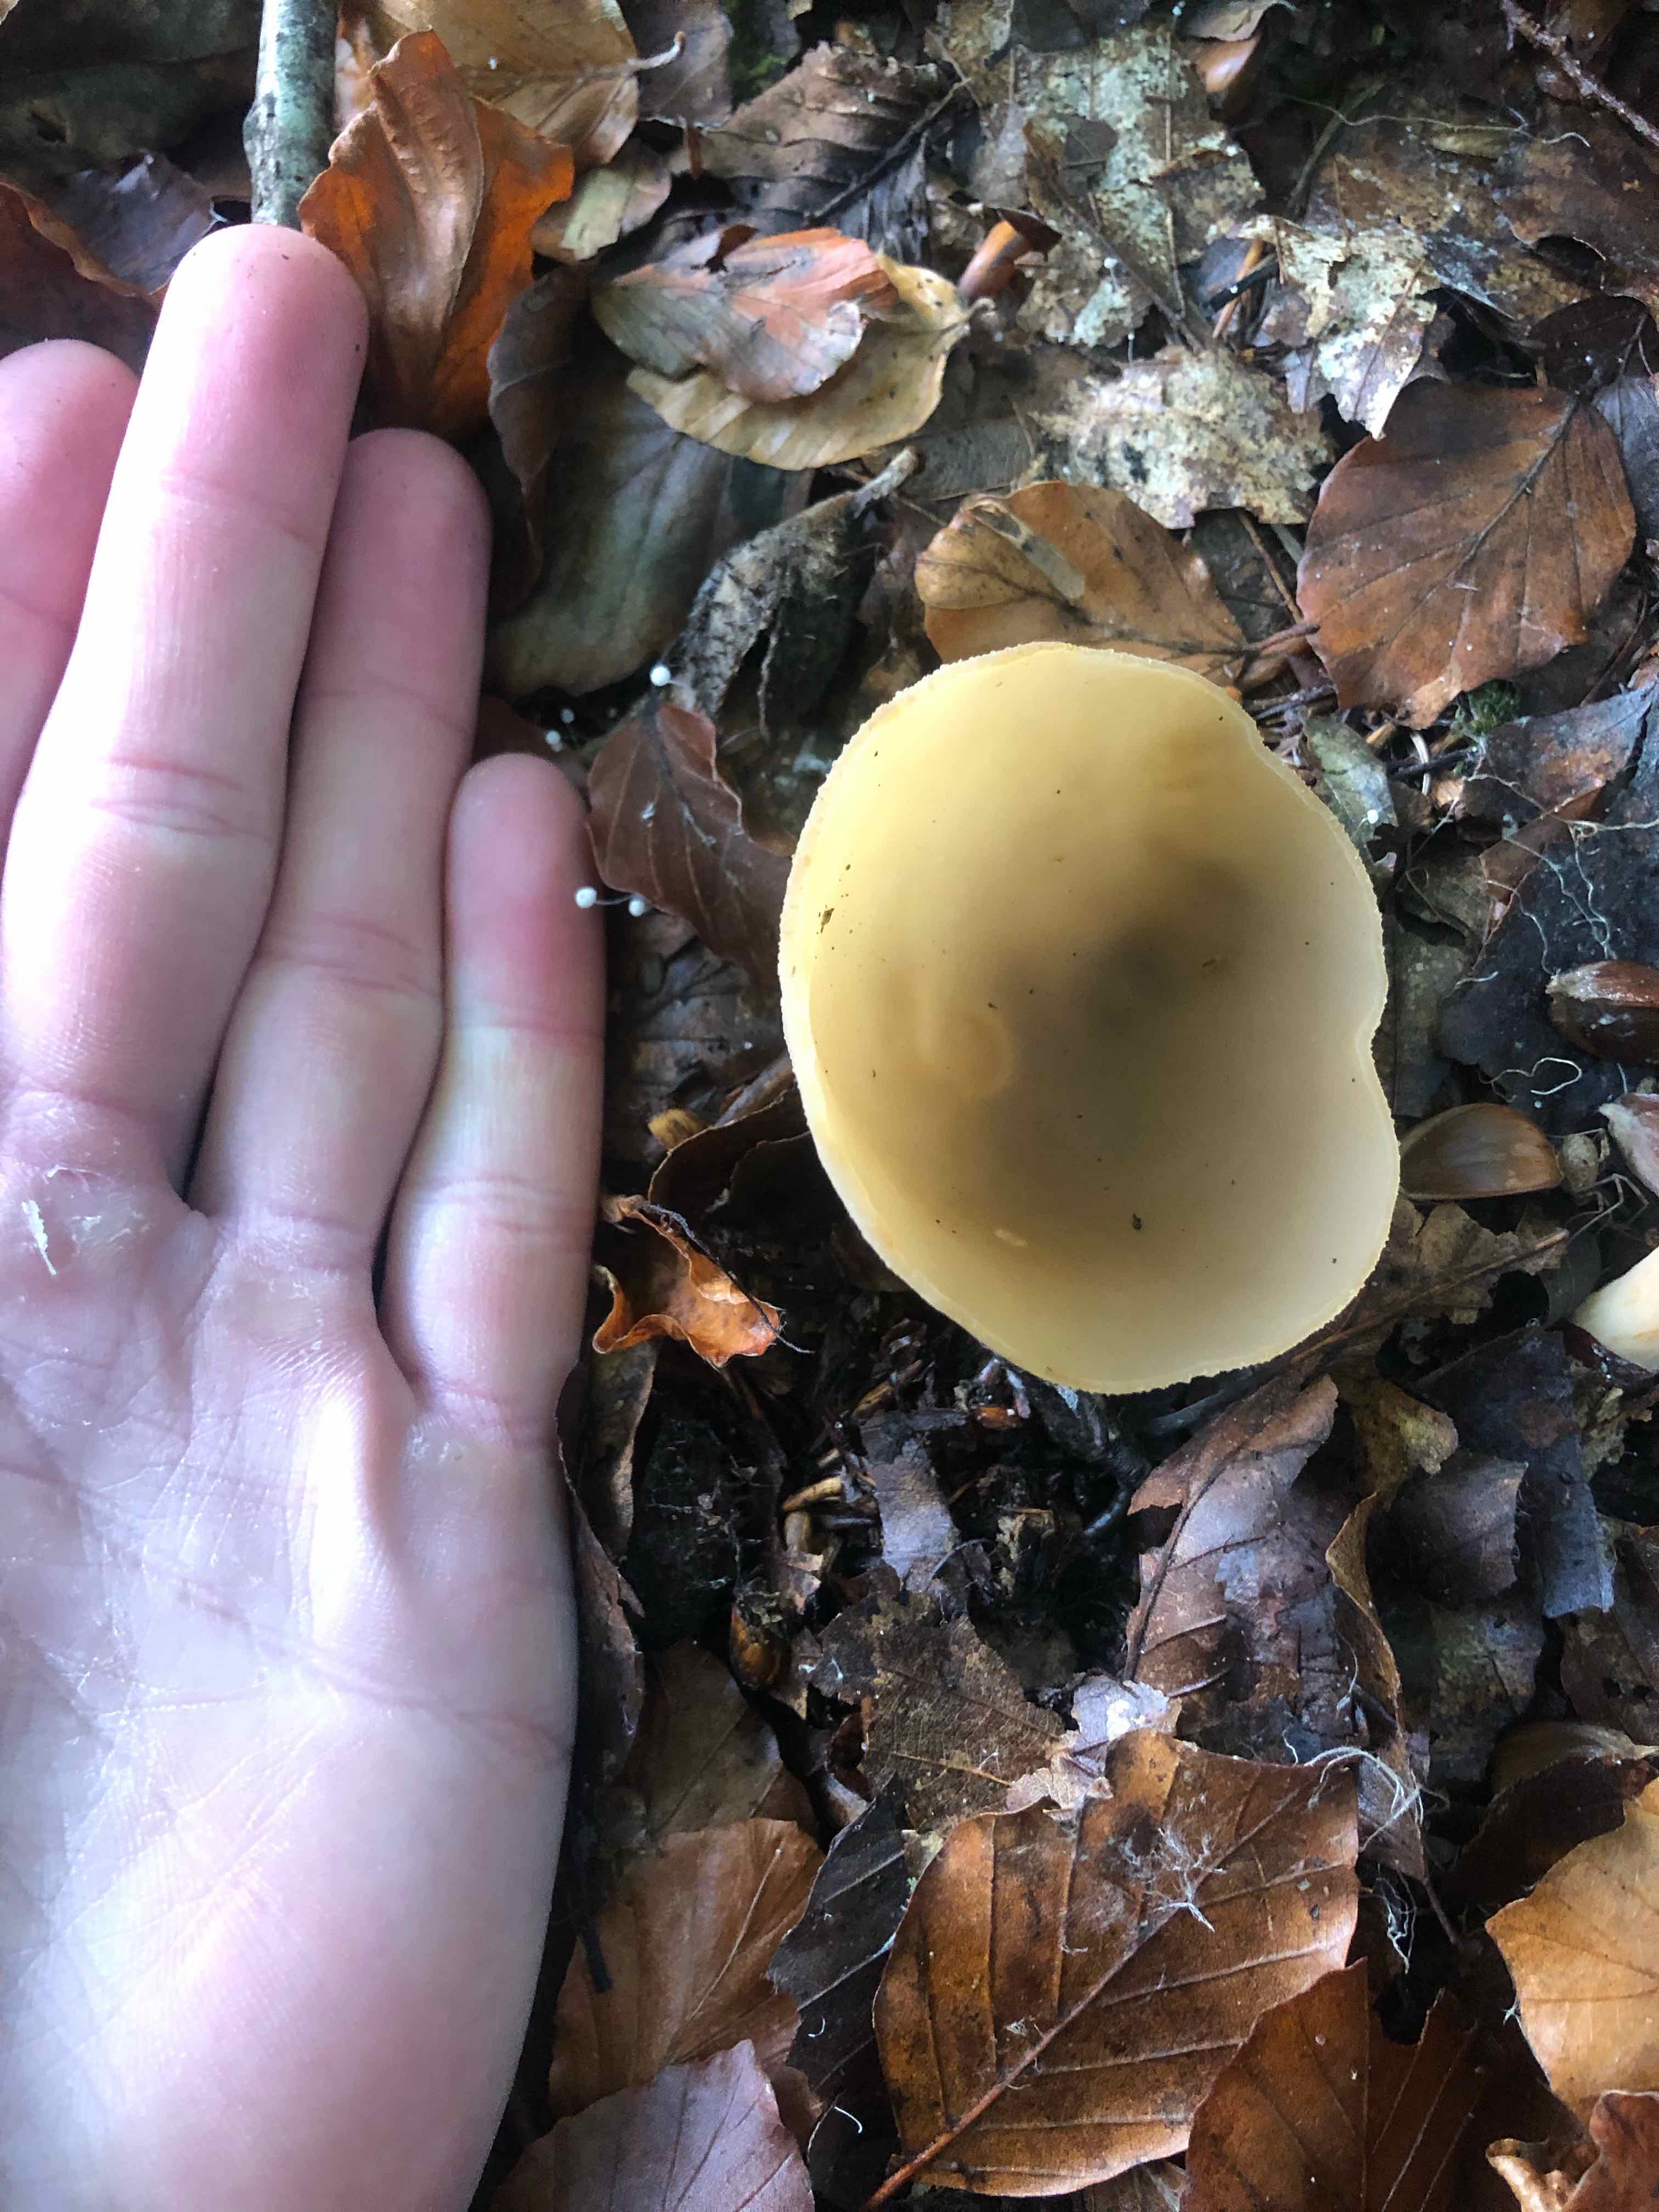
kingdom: Fungi
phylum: Ascomycota
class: Pezizomycetes
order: Pezizales
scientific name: Pezizales
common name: bægersvampordenen
